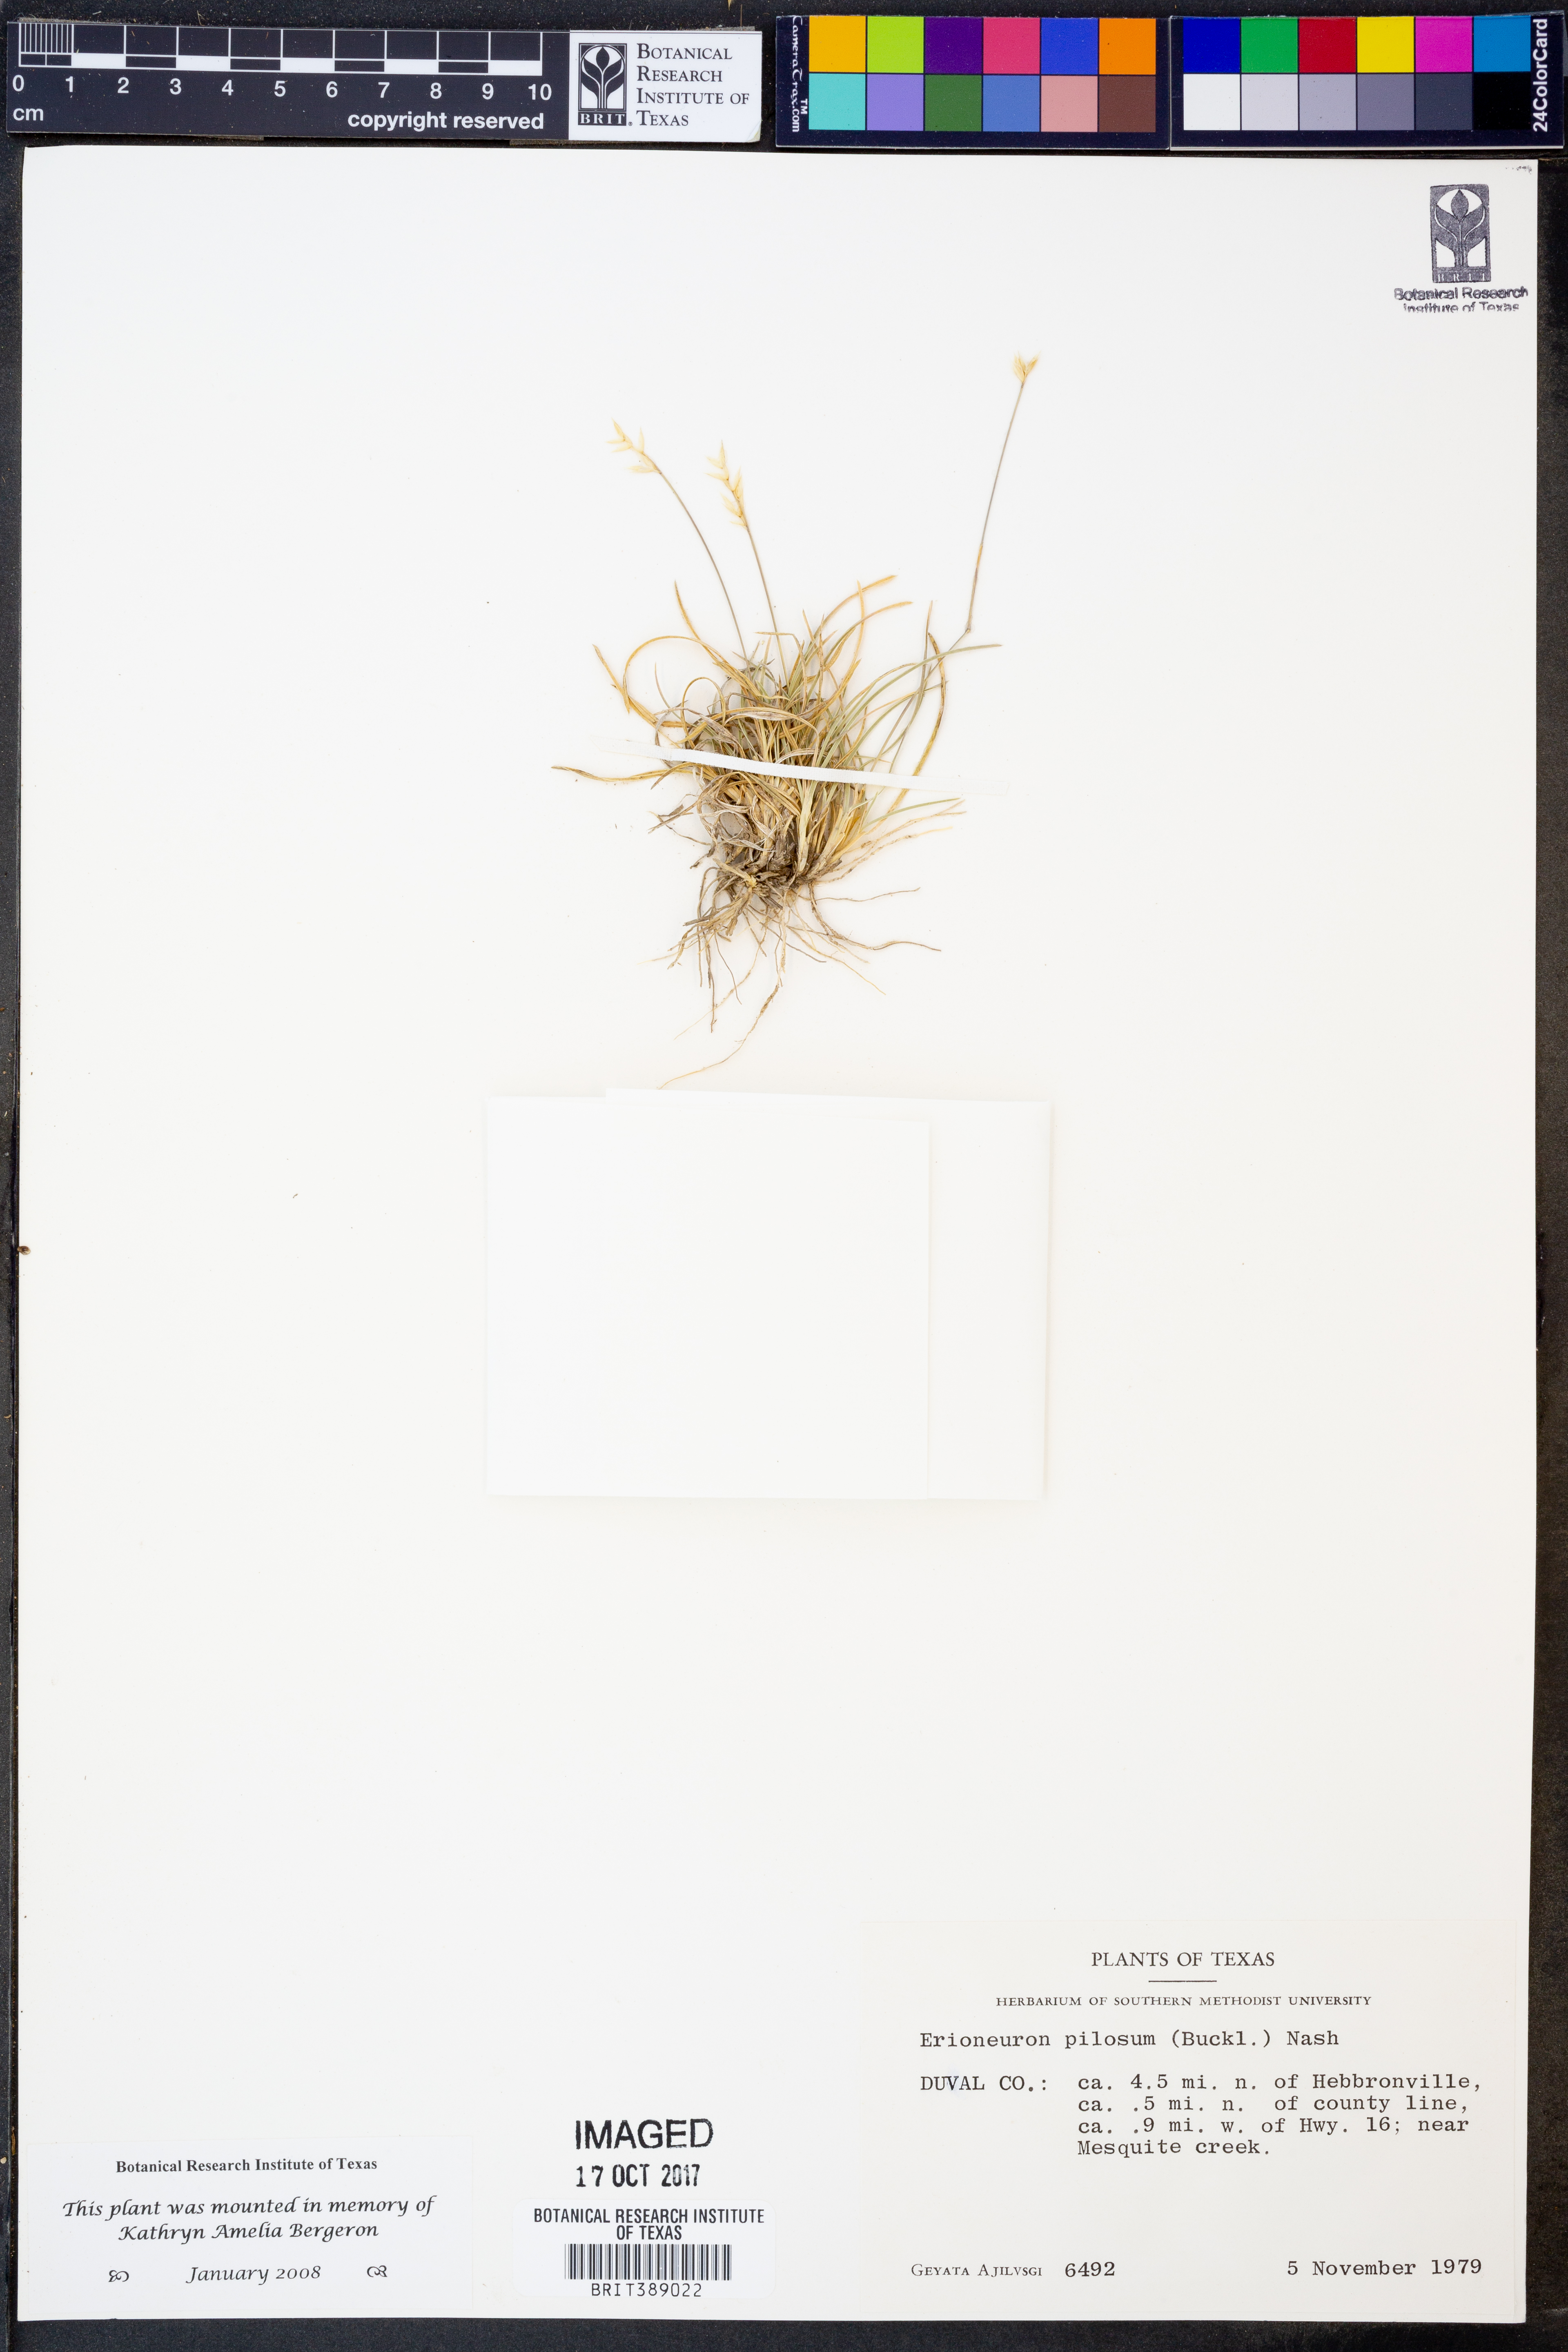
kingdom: Plantae
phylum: Tracheophyta
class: Liliopsida
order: Poales
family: Poaceae
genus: Erioneuron
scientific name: Erioneuron pilosum
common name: Hairy woolly grass
